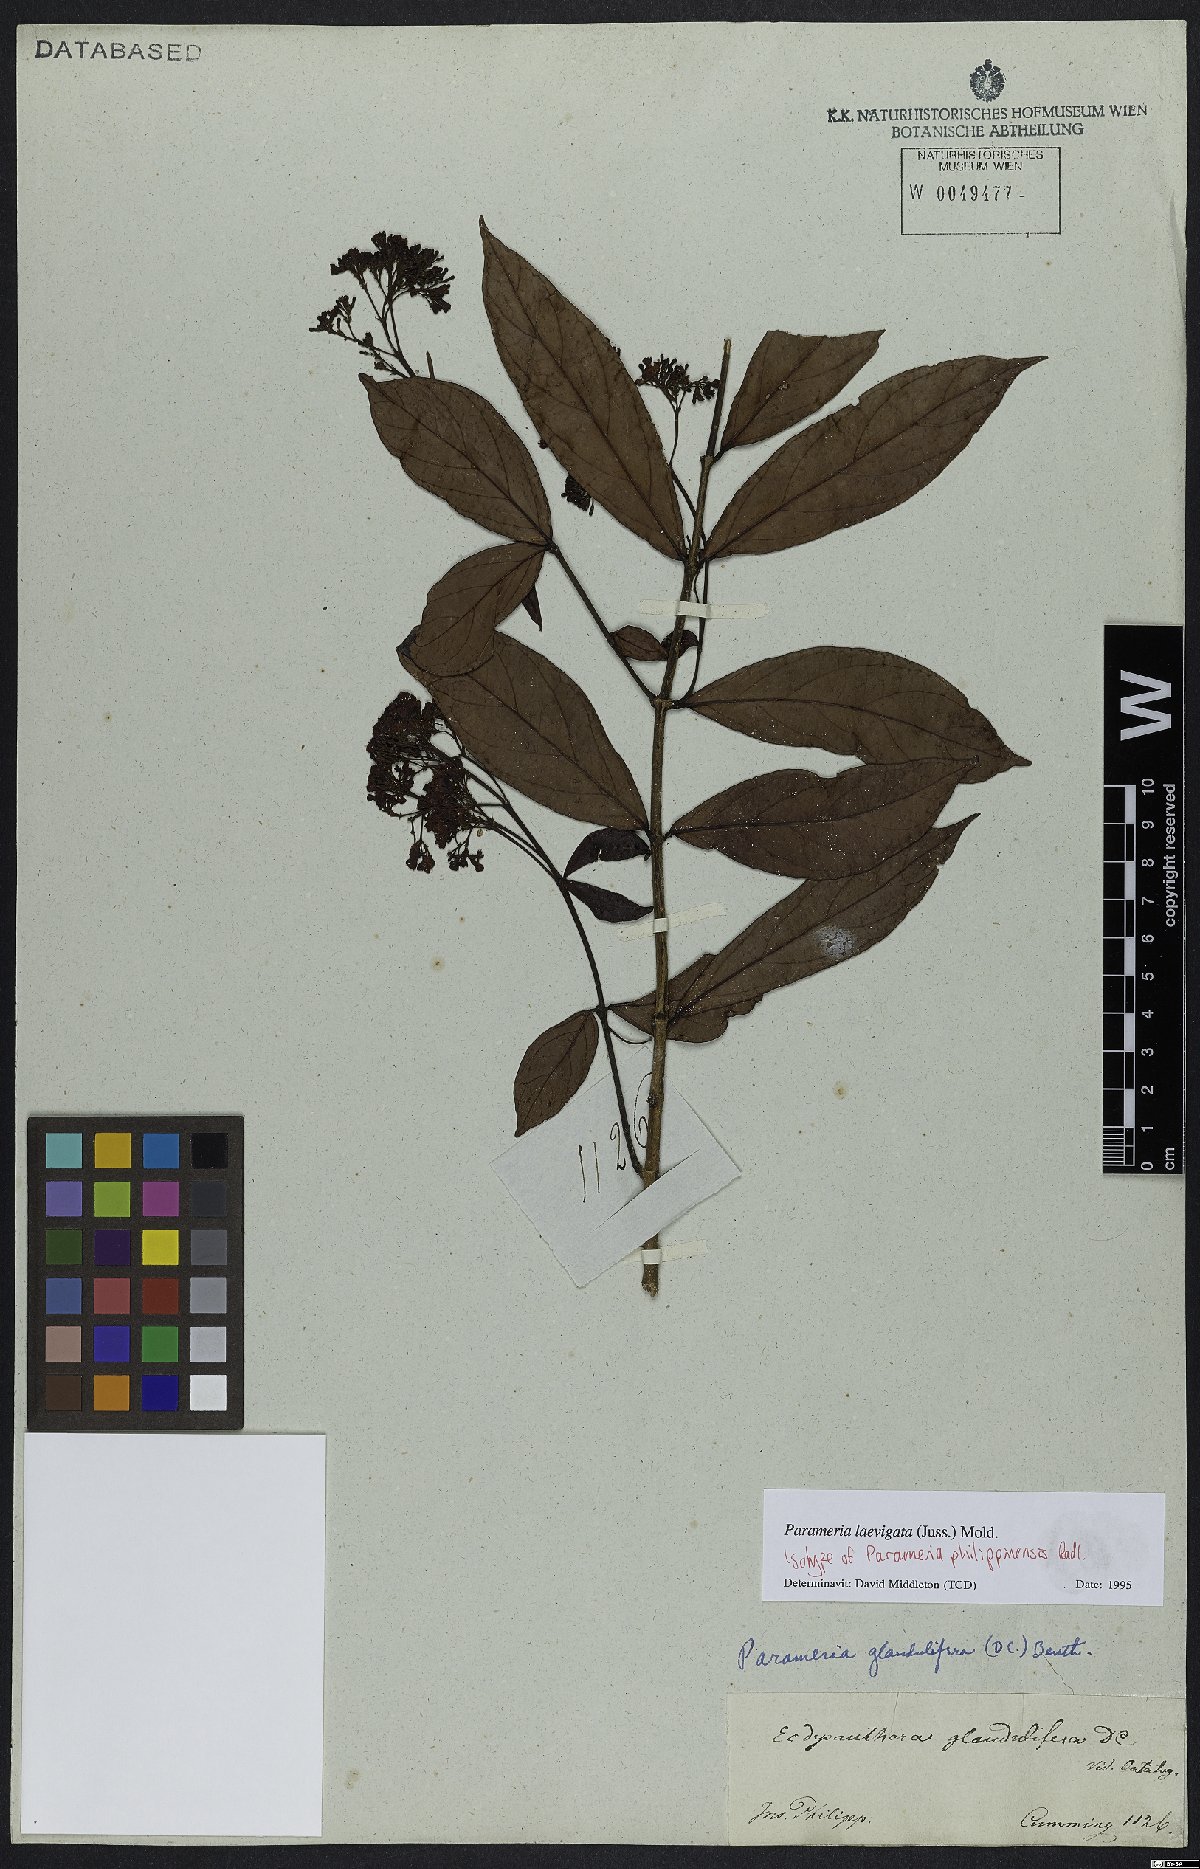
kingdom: Plantae
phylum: Tracheophyta
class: Magnoliopsida
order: Gentianales
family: Apocynaceae
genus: Urceola
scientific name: Urceola laevigata
